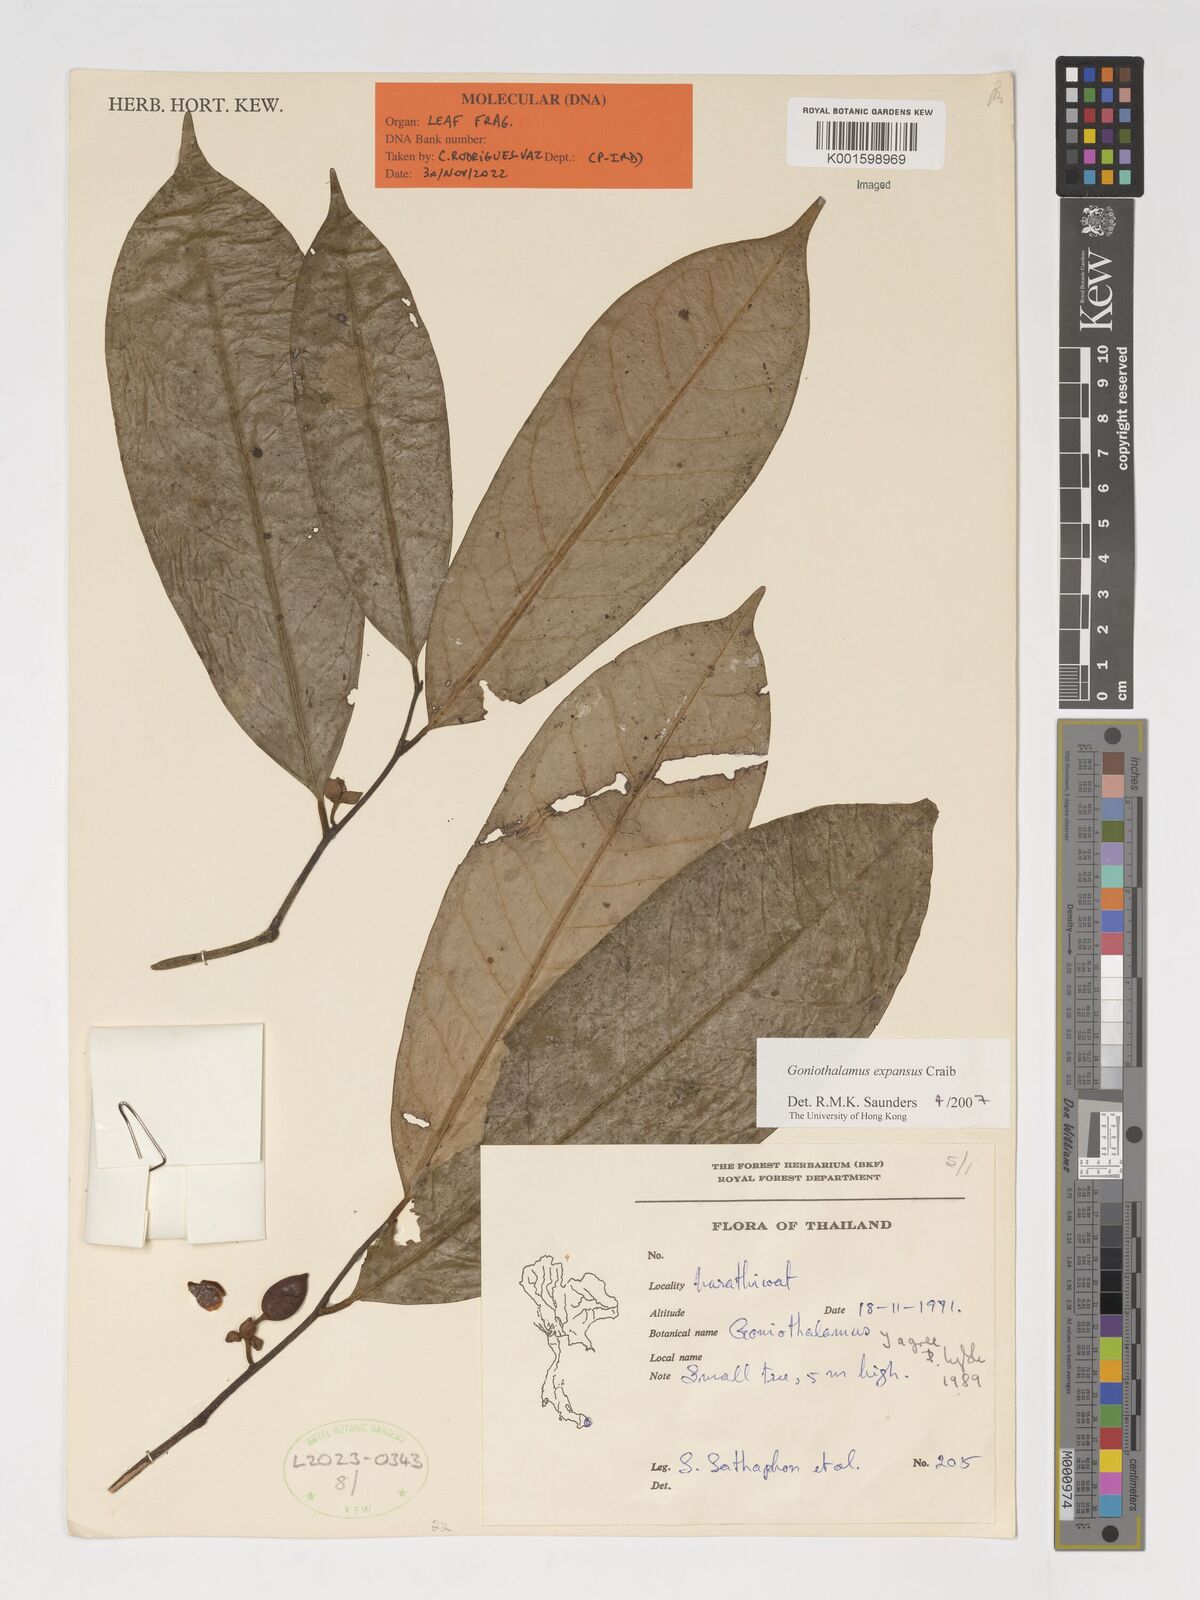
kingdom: Plantae
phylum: Tracheophyta
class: Magnoliopsida
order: Magnoliales
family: Annonaceae
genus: Goniothalamus
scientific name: Goniothalamus expansus
